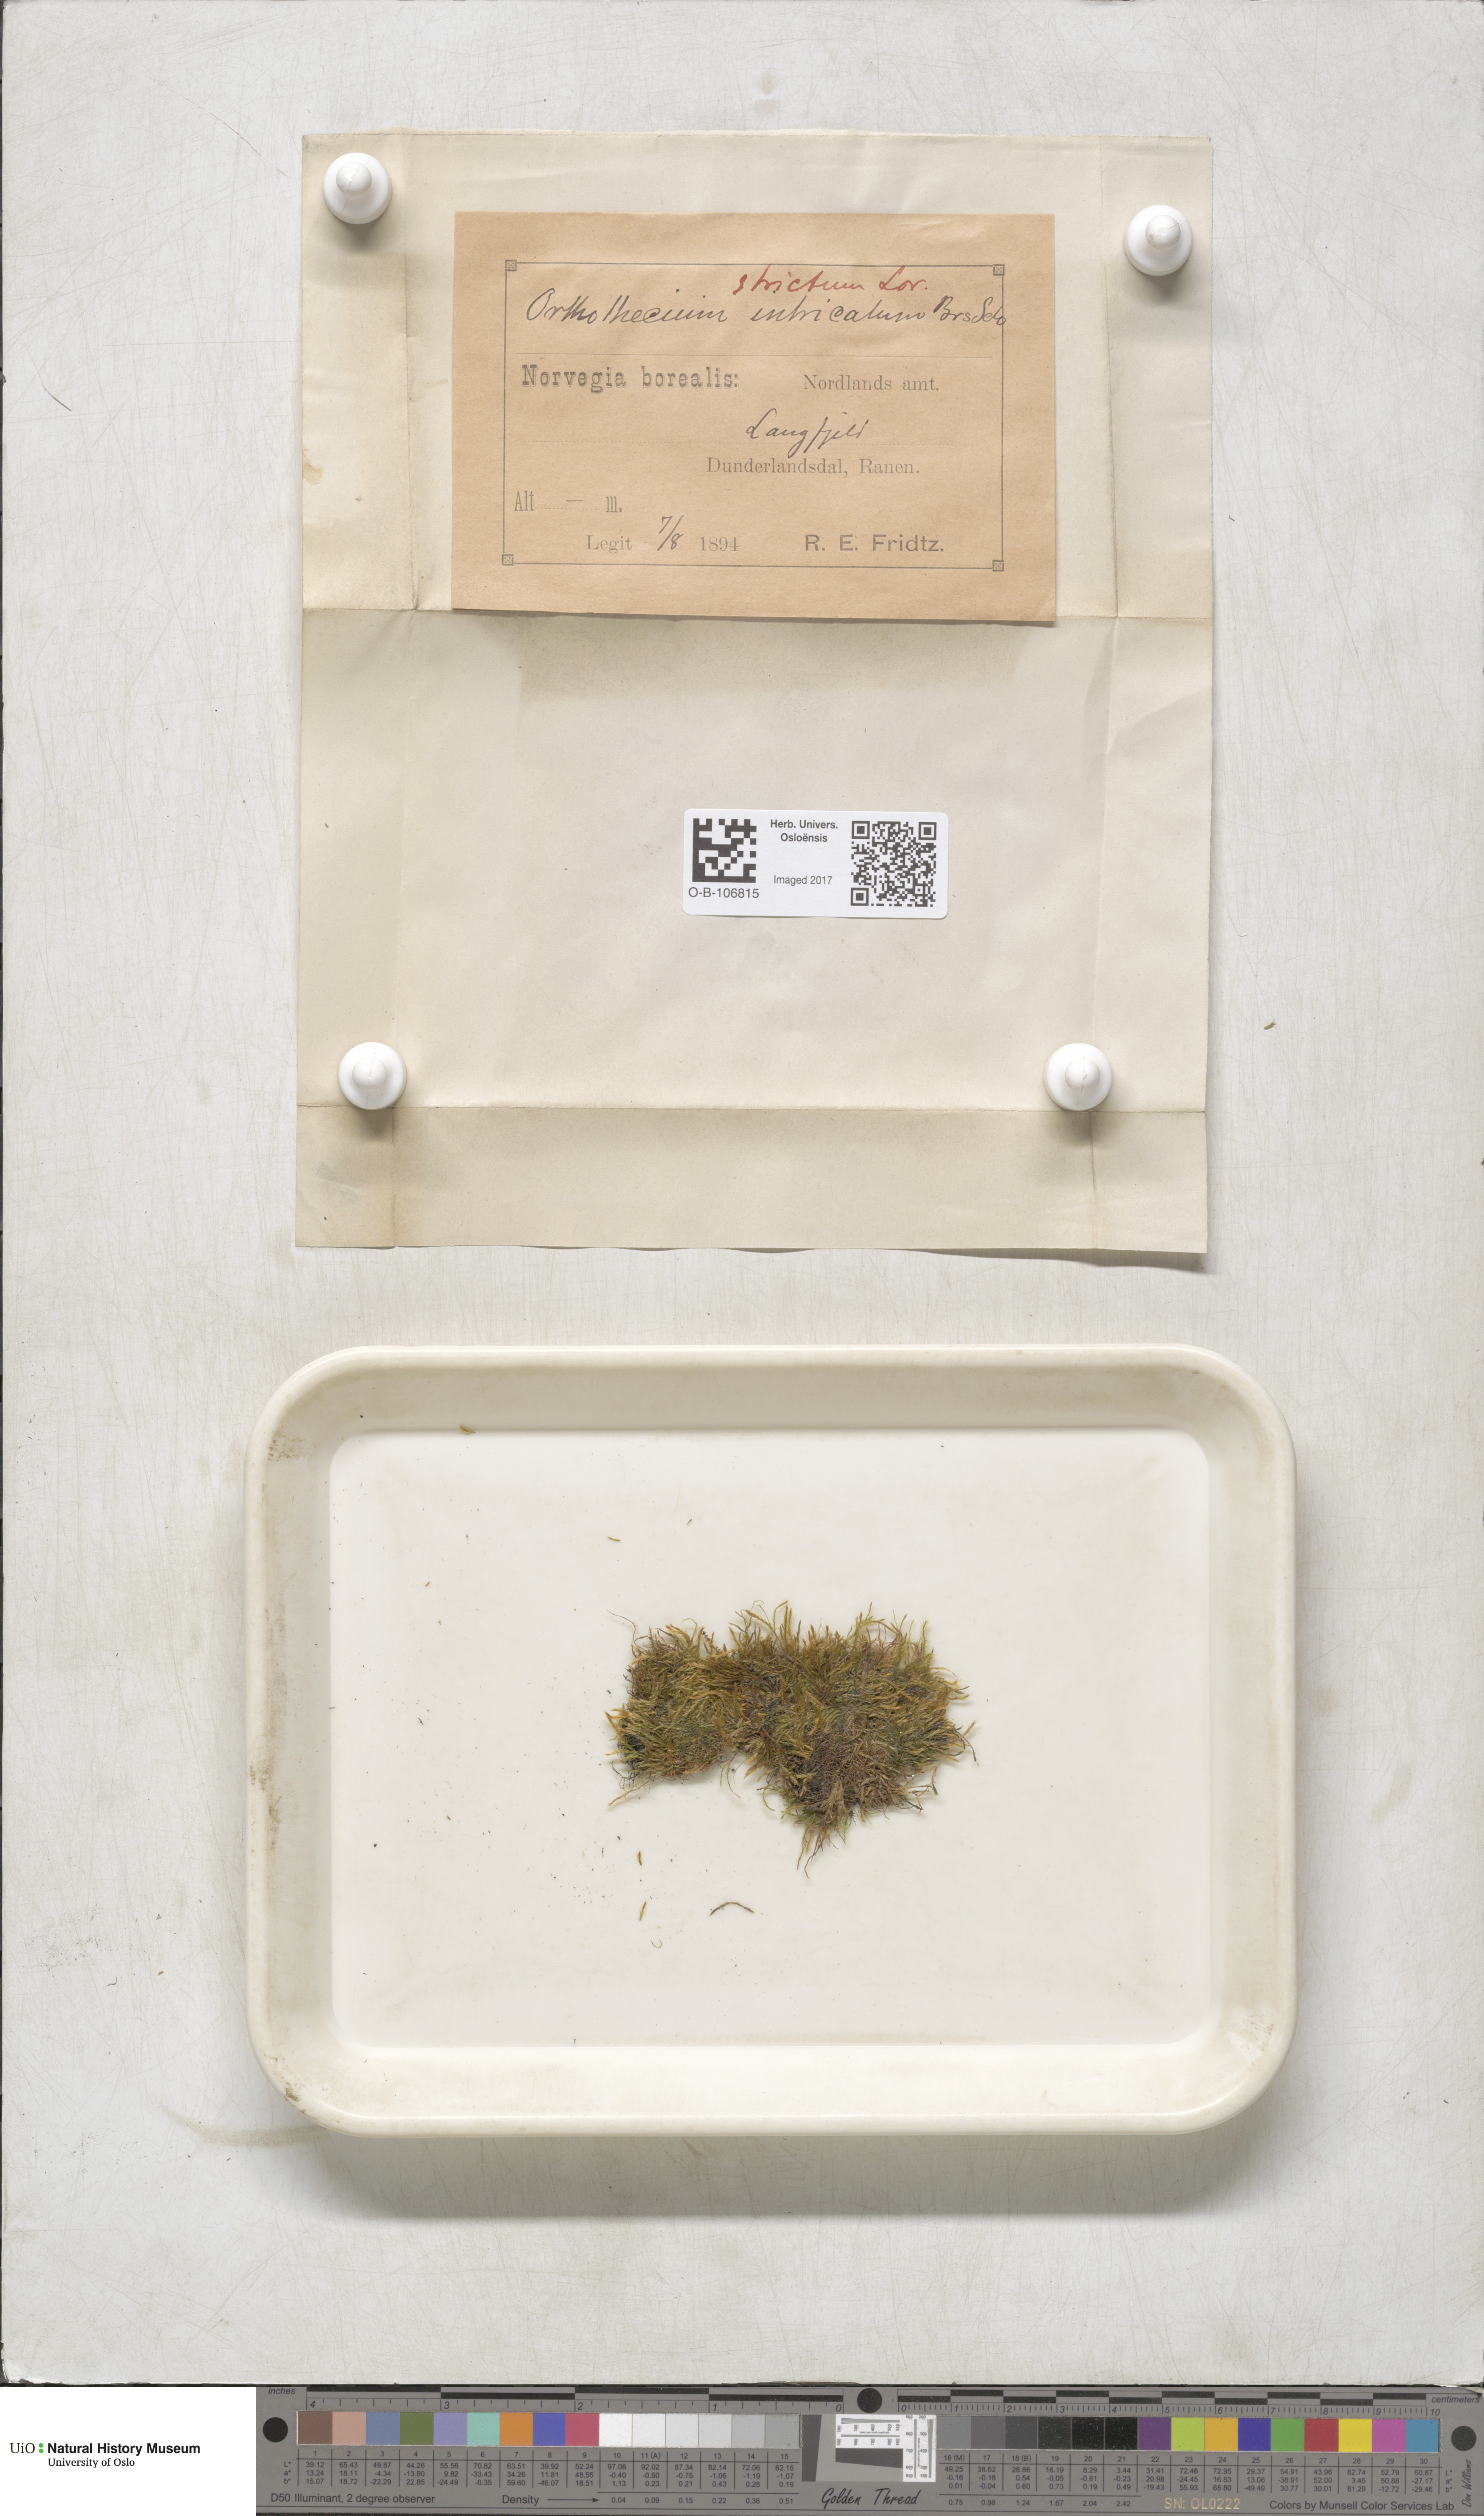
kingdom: Plantae
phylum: Bryophyta
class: Bryopsida
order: Hypnales
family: Plagiotheciaceae
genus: Orthothecium
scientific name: Orthothecium strictum
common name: Shiny erect-capsule moss
